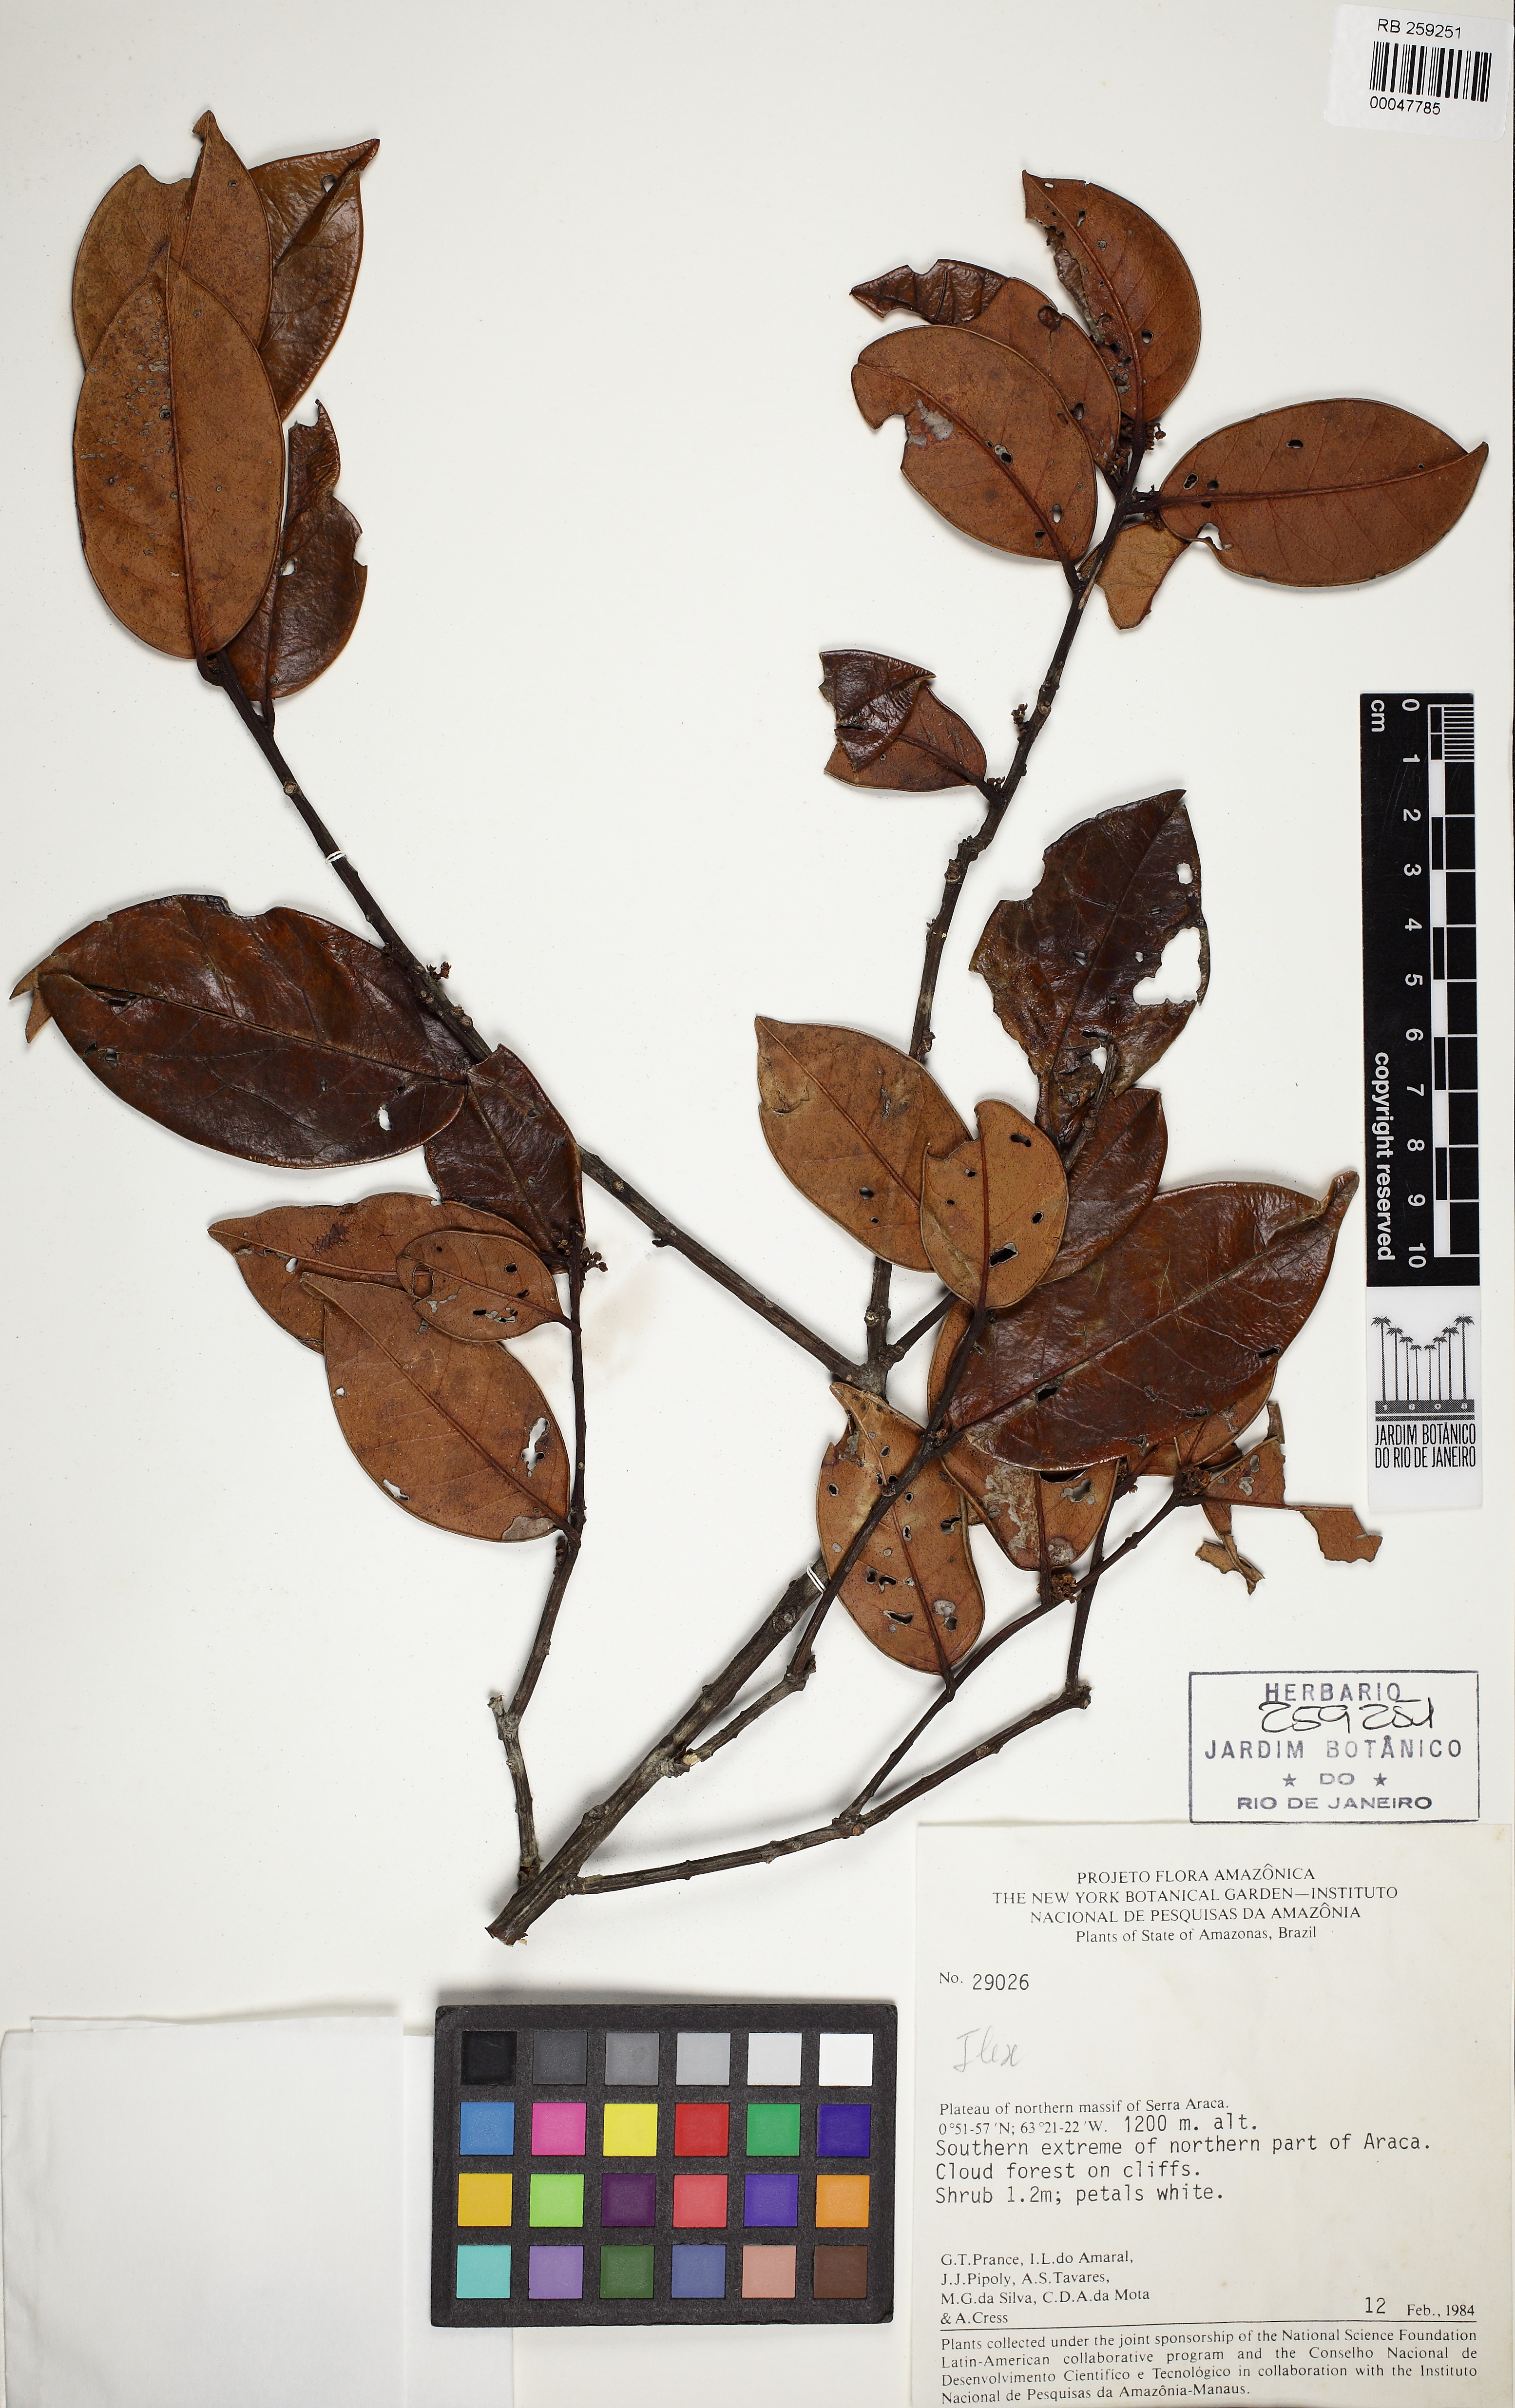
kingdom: Plantae
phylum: Tracheophyta
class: Magnoliopsida
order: Aquifoliales
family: Aquifoliaceae
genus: Ilex
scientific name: Ilex costata
